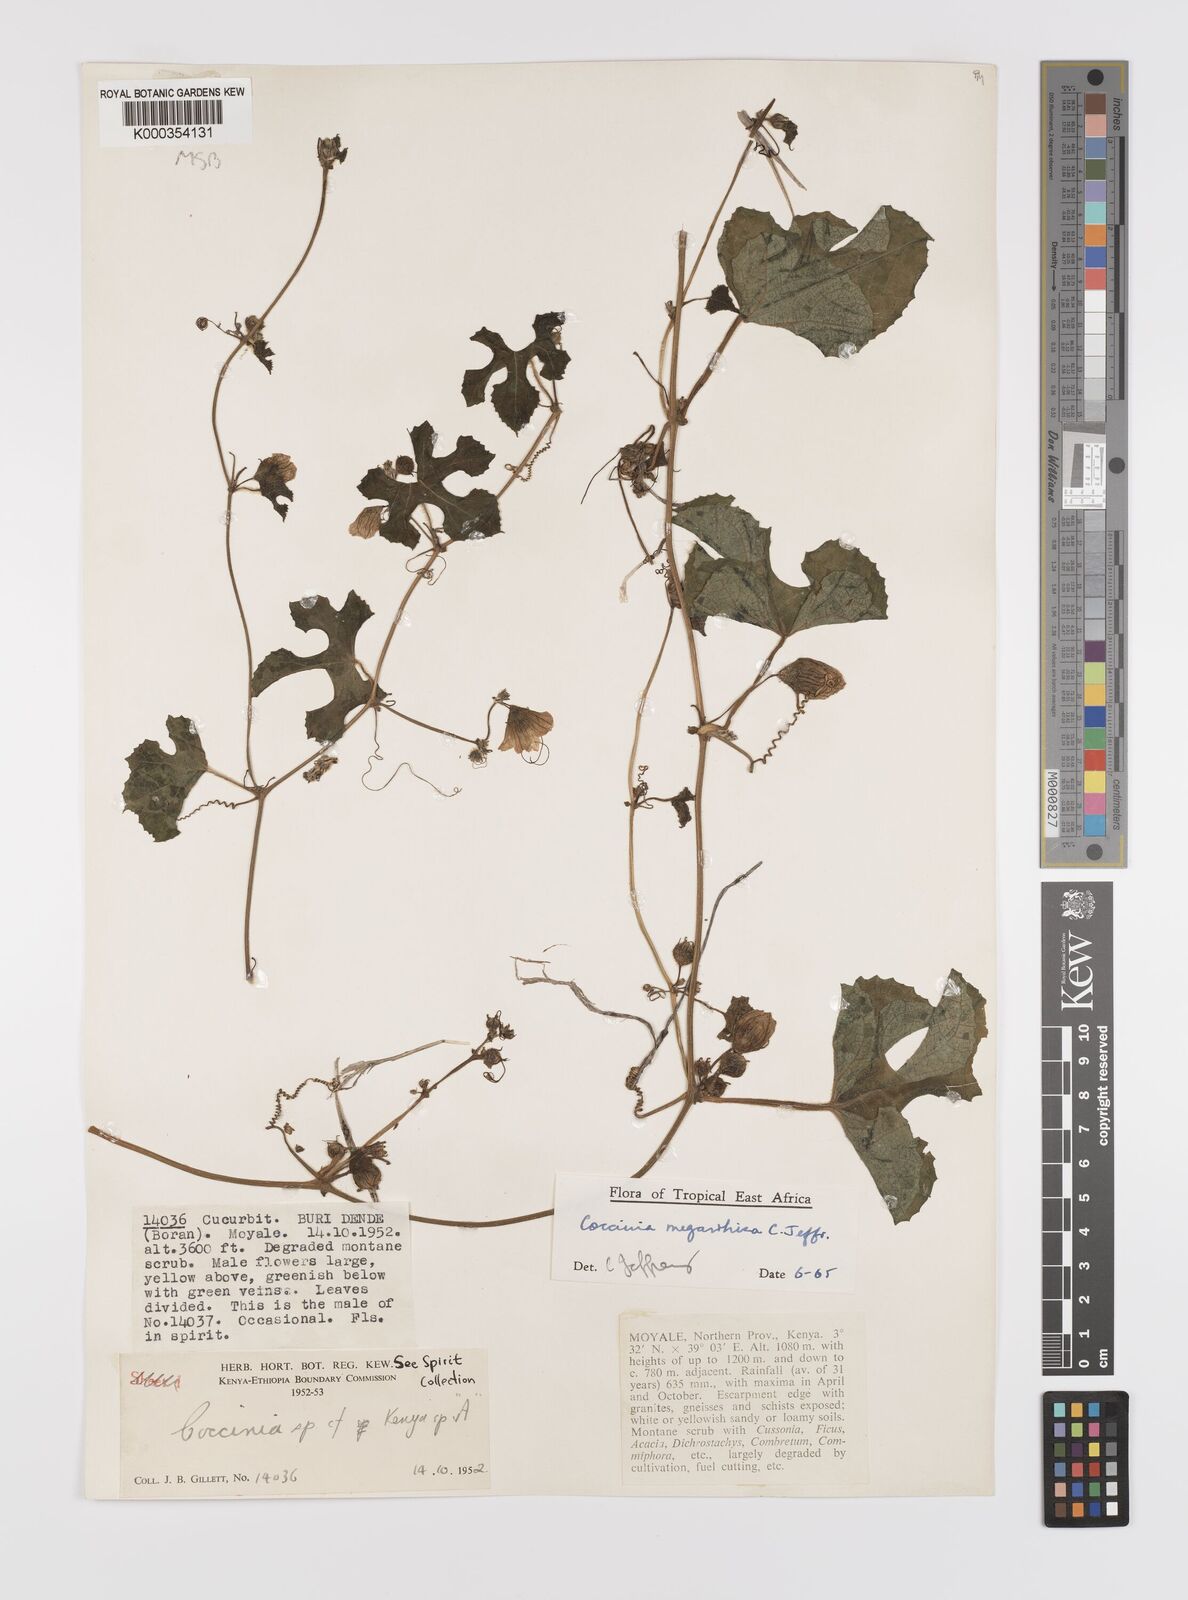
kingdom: Plantae
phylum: Tracheophyta
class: Magnoliopsida
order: Cucurbitales
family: Cucurbitaceae
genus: Coccinia
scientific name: Coccinia megarrhiza
